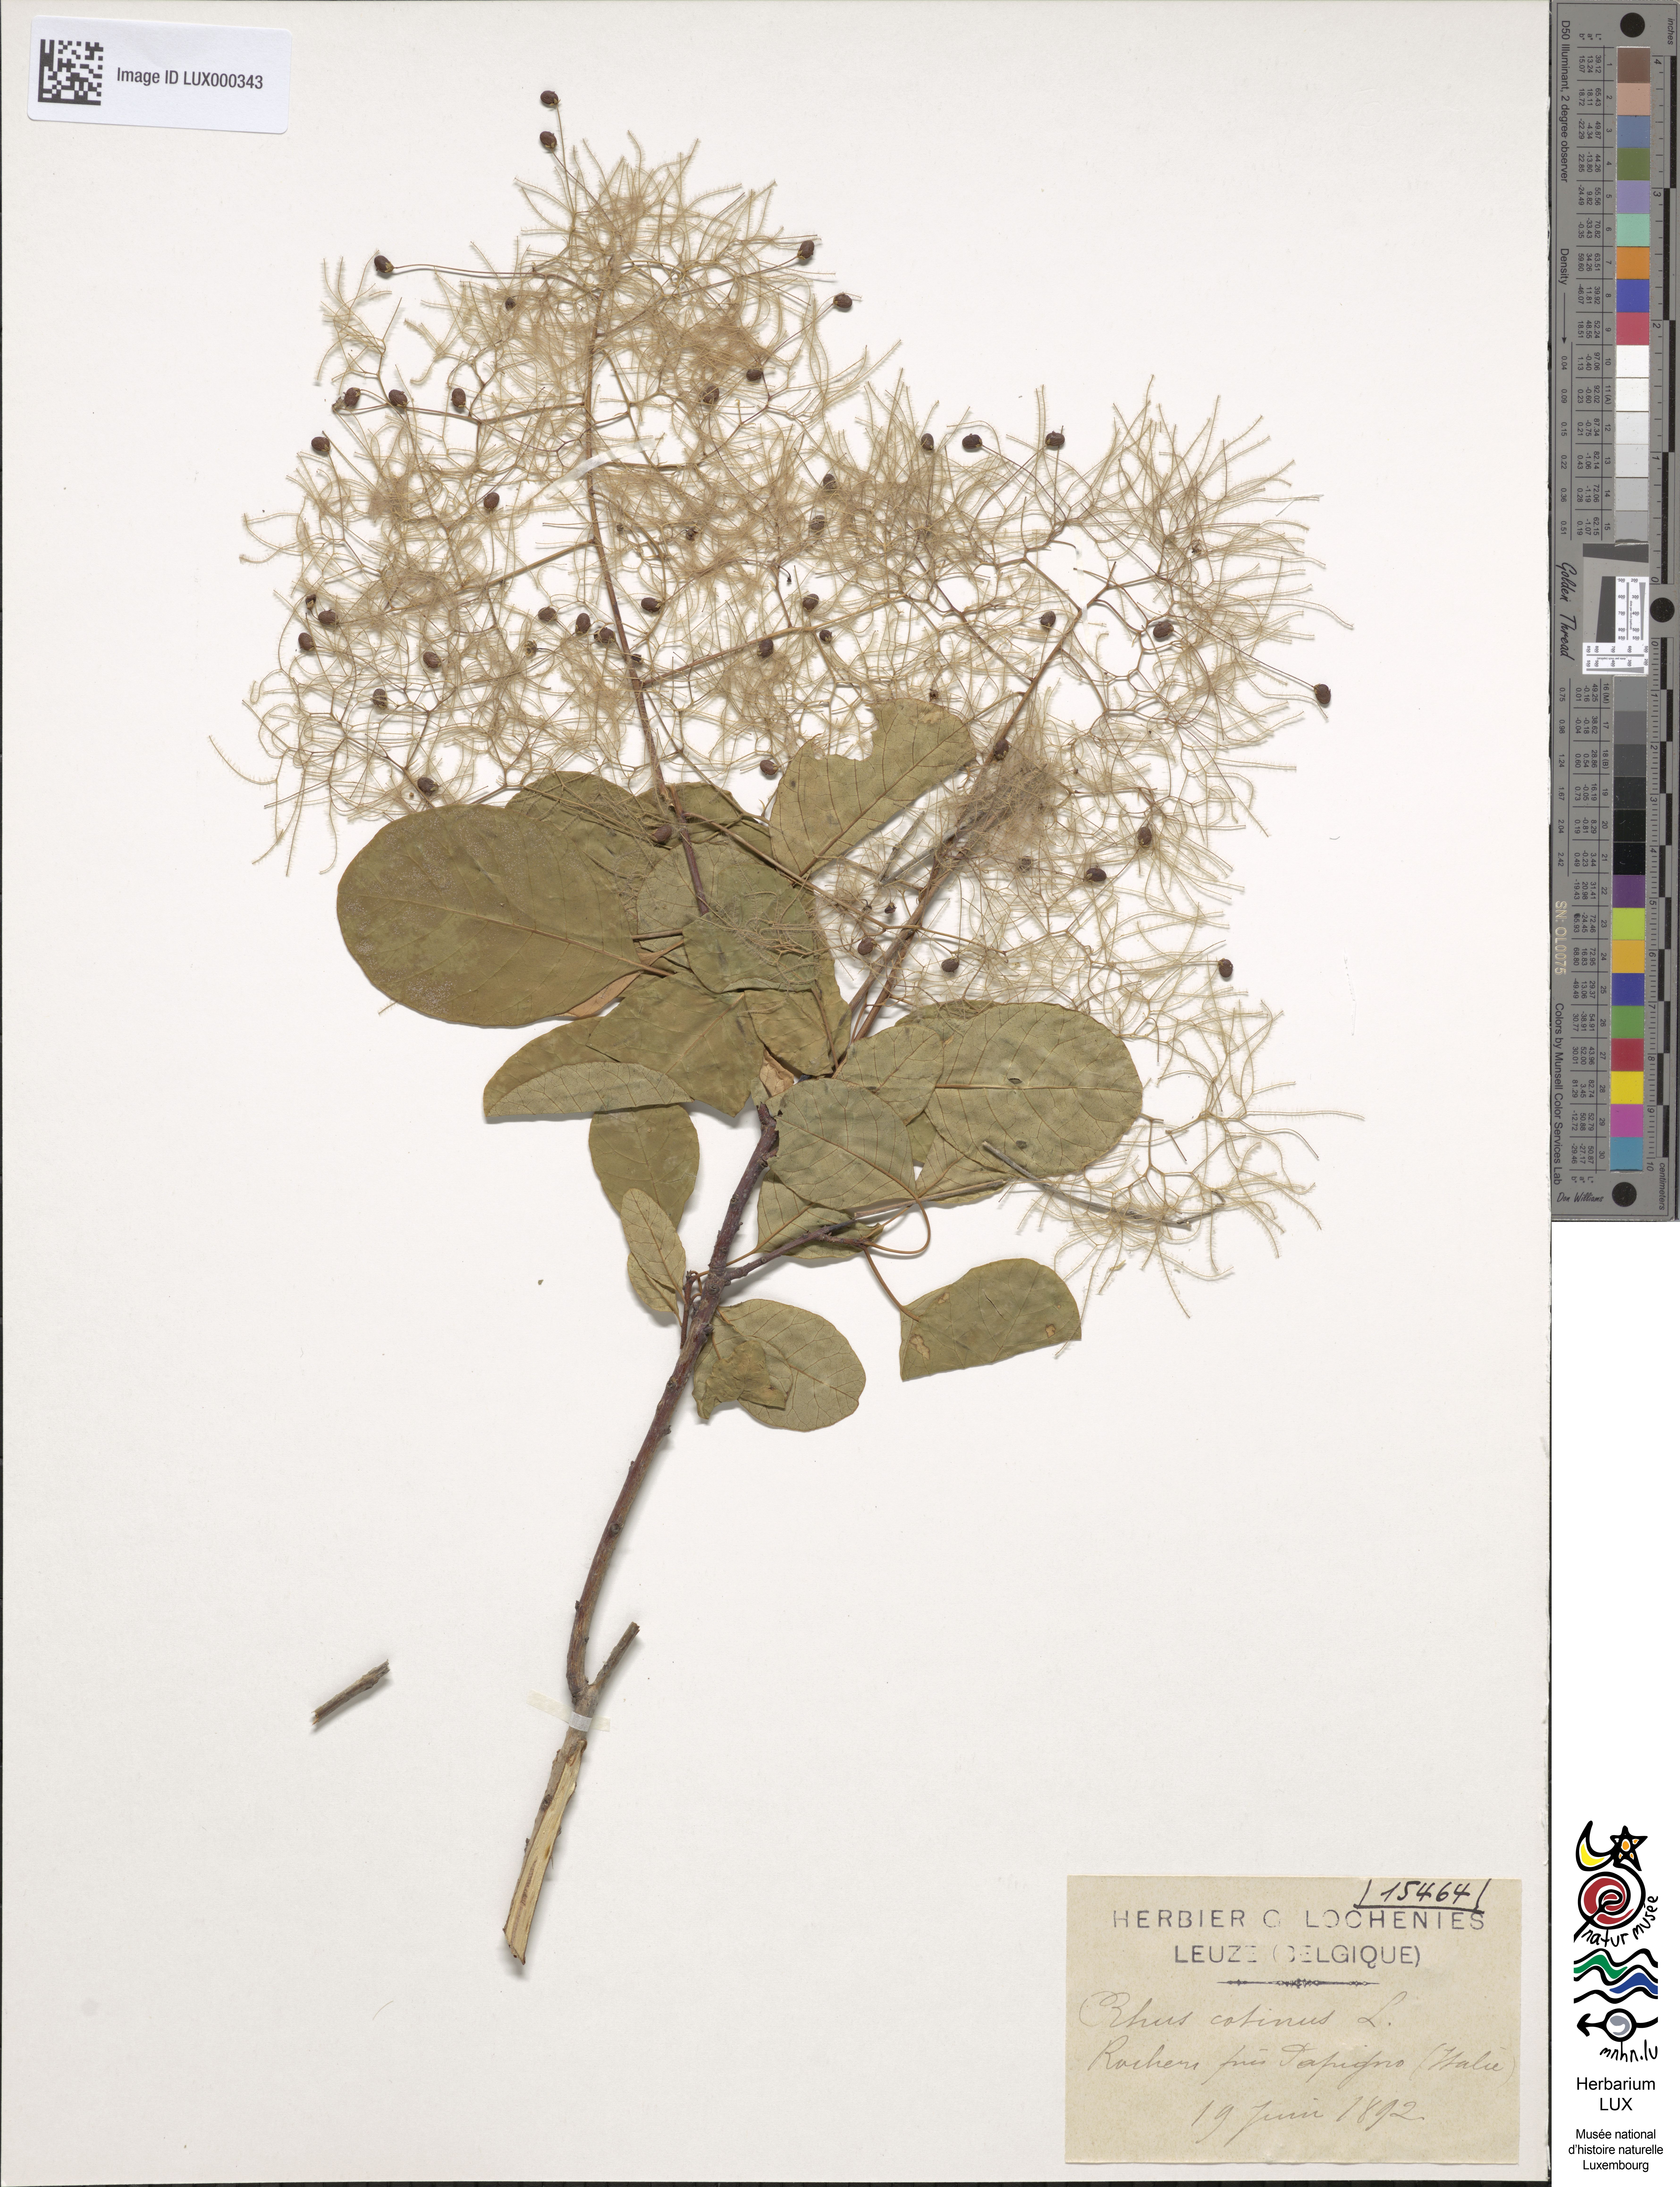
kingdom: Plantae
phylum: Tracheophyta
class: Magnoliopsida
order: Sapindales
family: Anacardiaceae
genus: Cotinus
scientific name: Cotinus coggygria
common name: Smoke-tree
